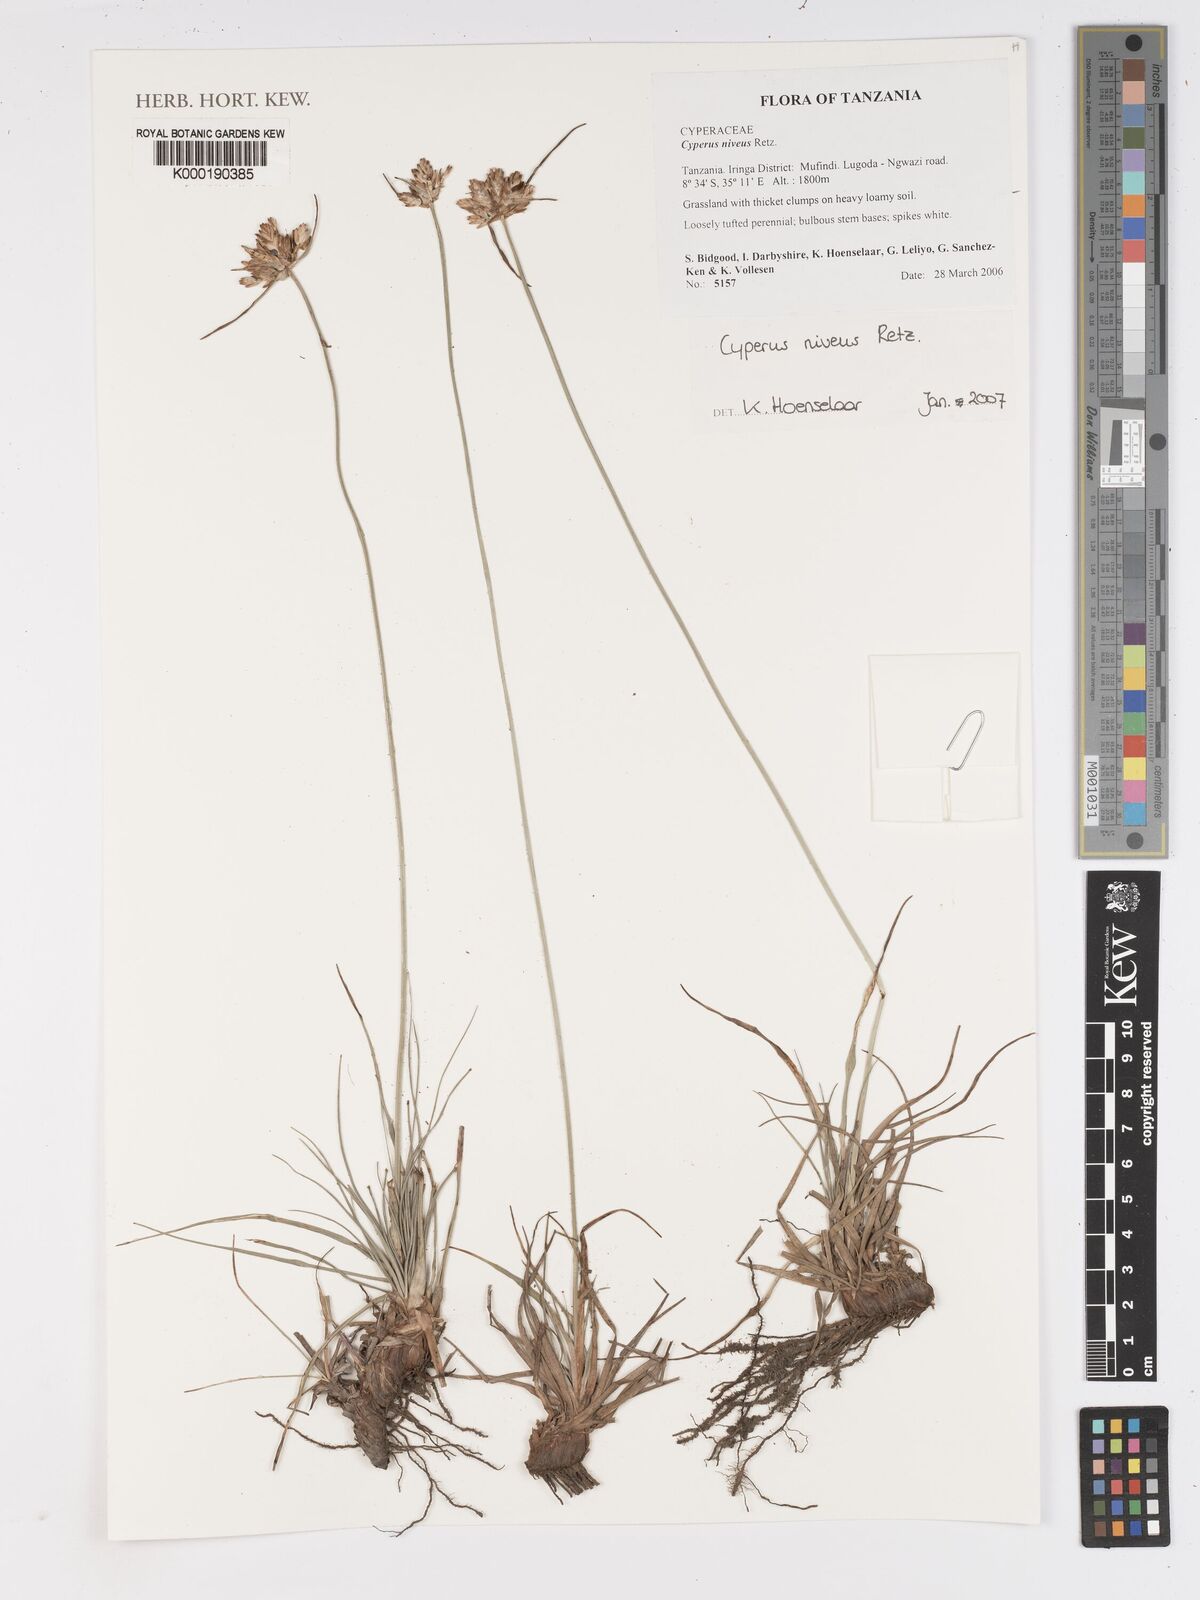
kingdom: Plantae
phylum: Tracheophyta
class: Liliopsida
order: Poales
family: Cyperaceae
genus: Cyperus
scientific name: Cyperus niveus
